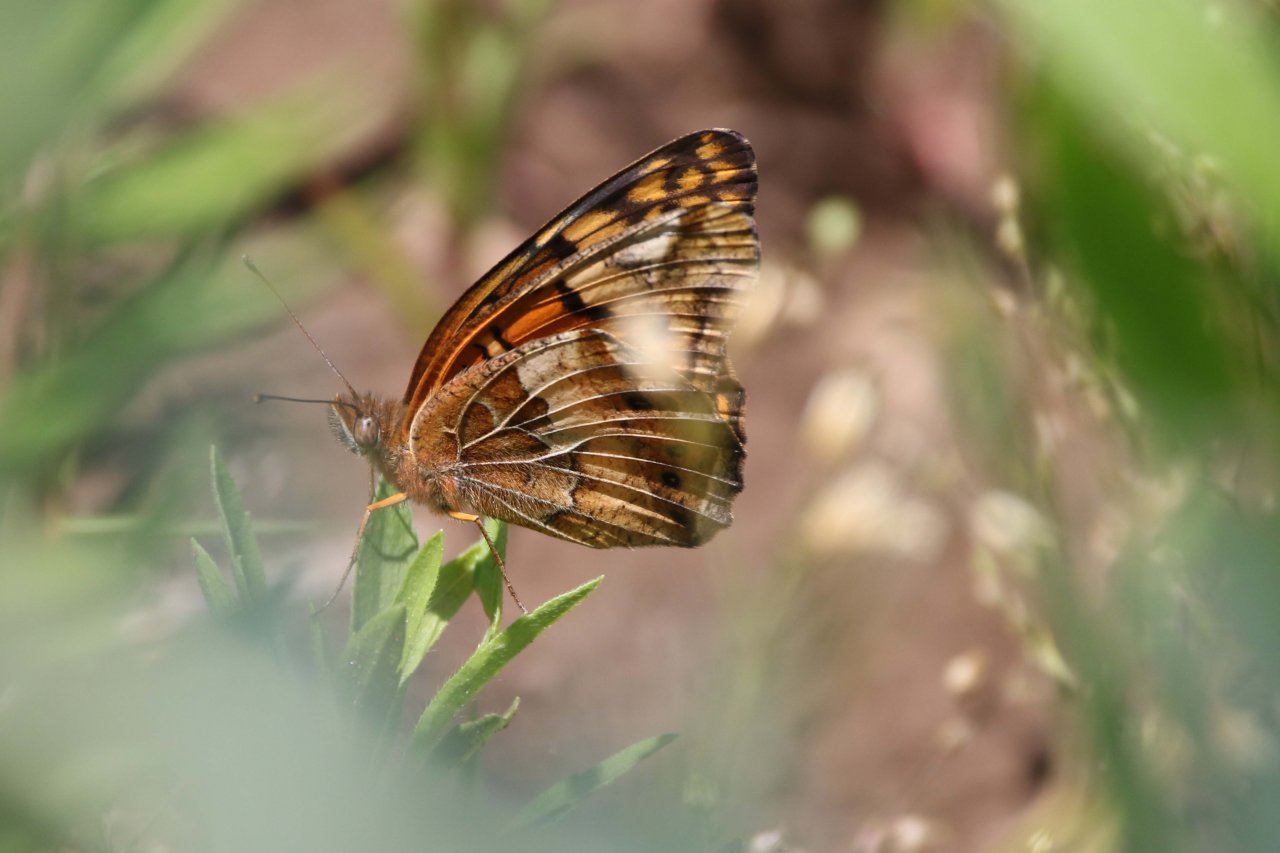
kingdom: Animalia
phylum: Arthropoda
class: Insecta
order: Lepidoptera
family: Nymphalidae
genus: Euptoieta
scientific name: Euptoieta claudia
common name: Variegated Fritillary
